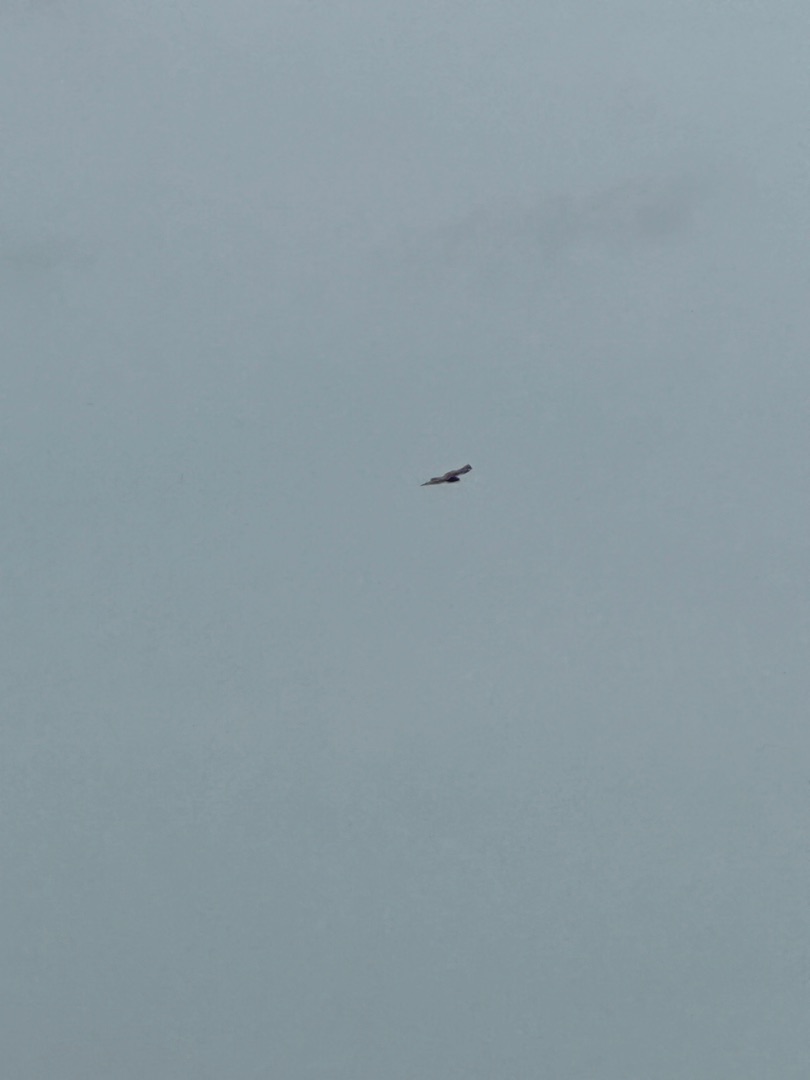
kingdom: Animalia
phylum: Chordata
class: Aves
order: Accipitriformes
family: Accipitridae
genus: Buteo
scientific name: Buteo buteo
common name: Musvåge
